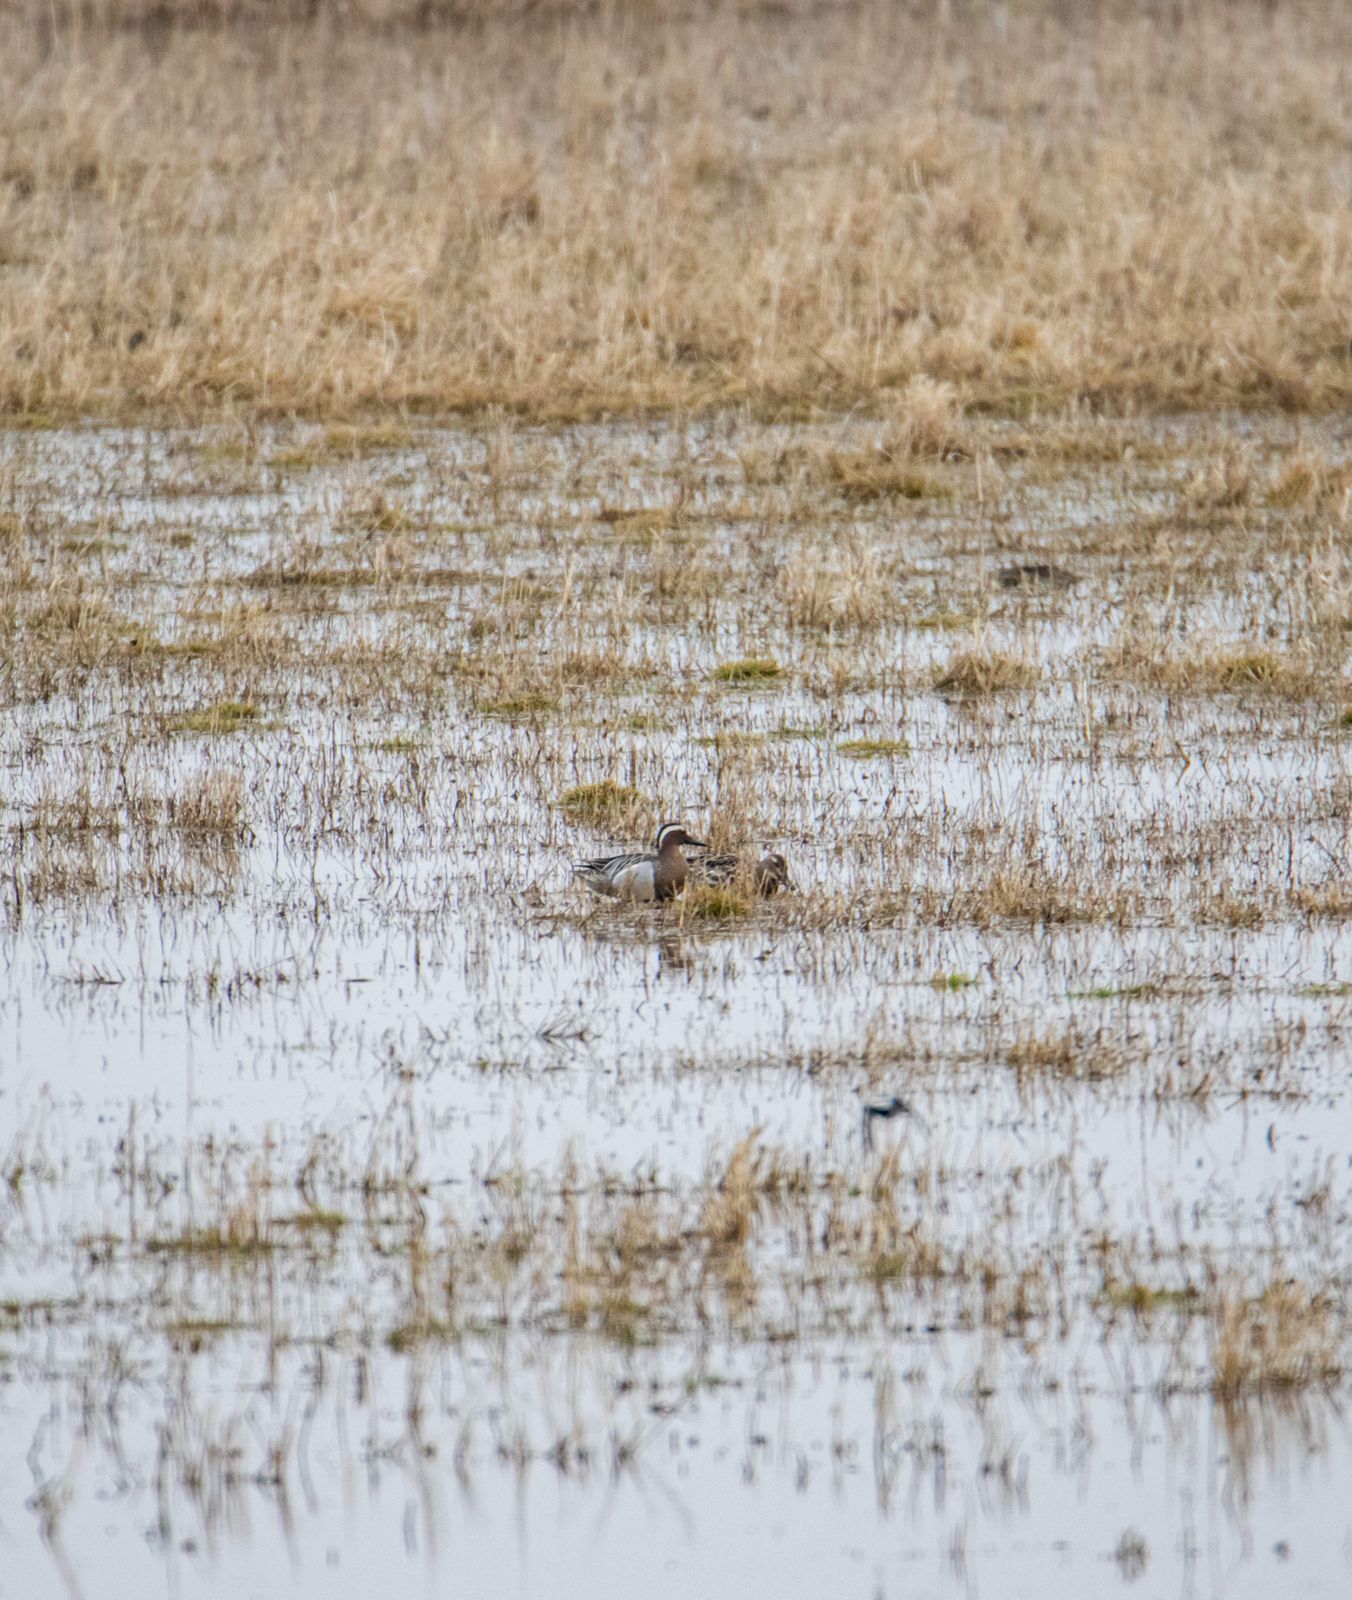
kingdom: Animalia
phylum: Chordata
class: Aves
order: Anseriformes
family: Anatidae
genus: Spatula
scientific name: Spatula querquedula
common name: Garganey
